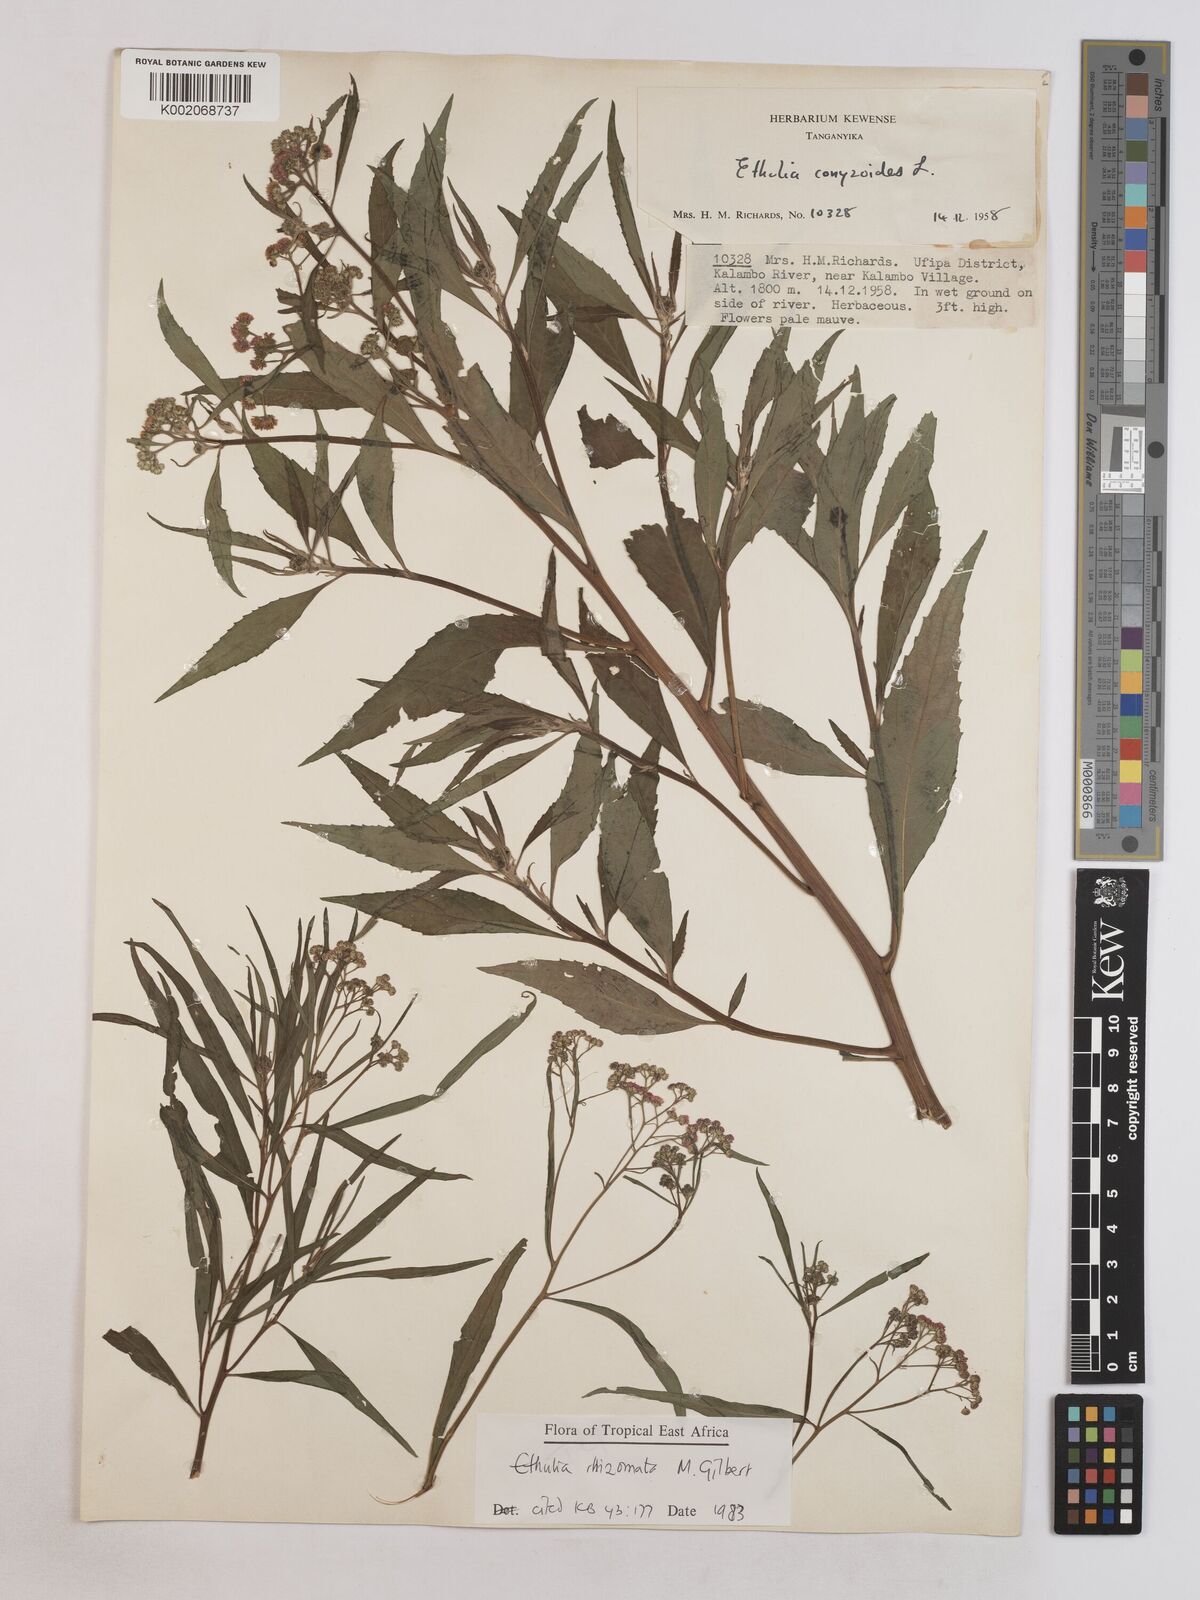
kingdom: Plantae
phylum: Tracheophyta
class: Magnoliopsida
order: Asterales
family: Asteraceae
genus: Ethulia
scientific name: Ethulia rhizomata
